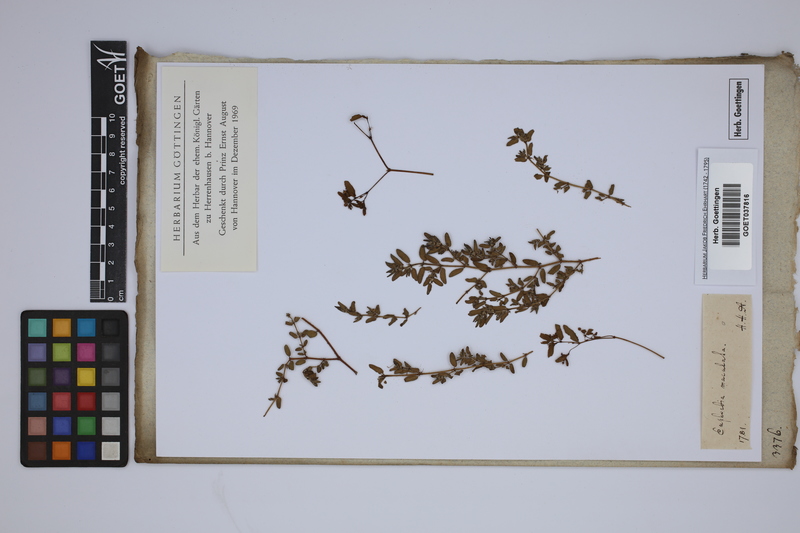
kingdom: Plantae
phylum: Tracheophyta
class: Magnoliopsida
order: Malpighiales
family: Euphorbiaceae
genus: Euphorbia
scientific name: Euphorbia maculata
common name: Spotted spurge
